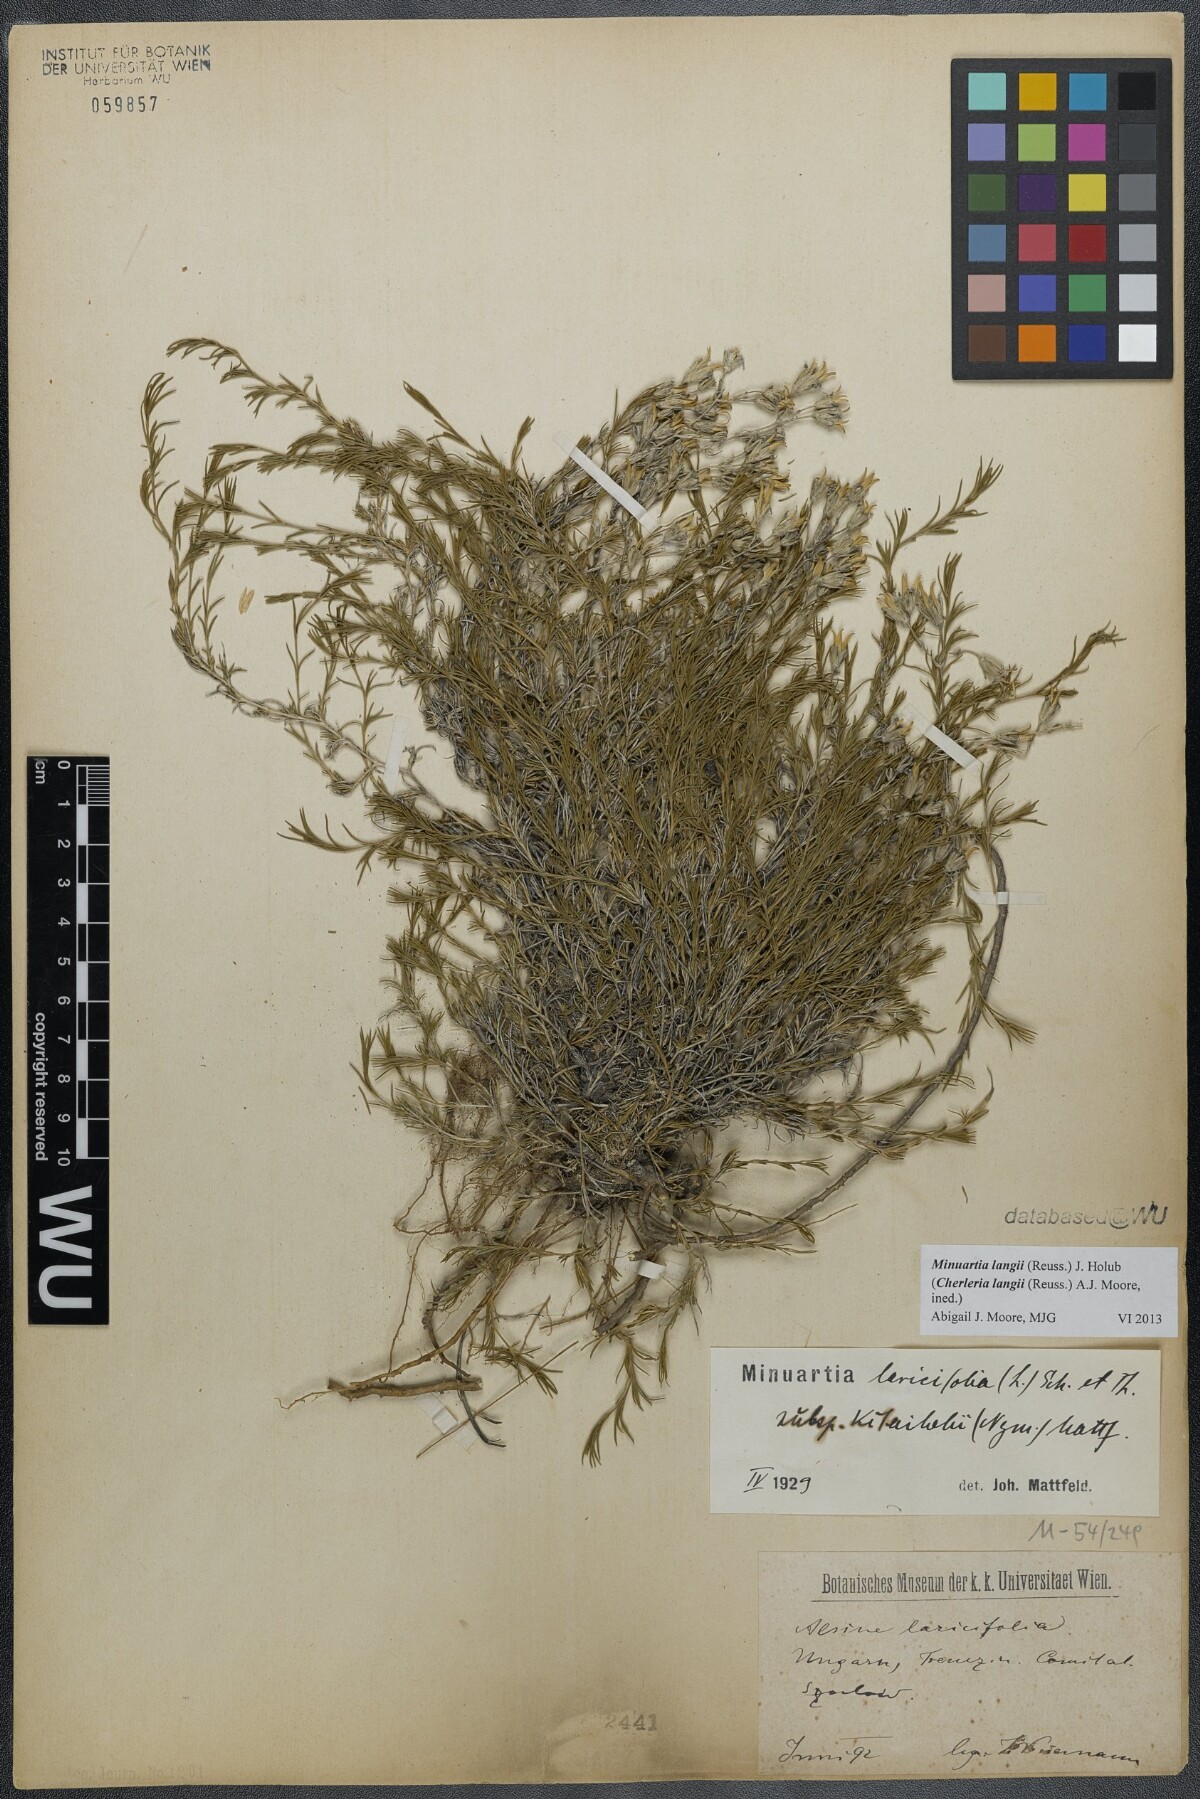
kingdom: Plantae
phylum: Tracheophyta
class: Magnoliopsida
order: Caryophyllales
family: Caryophyllaceae
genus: Cherleria
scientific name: Cherleria langii
